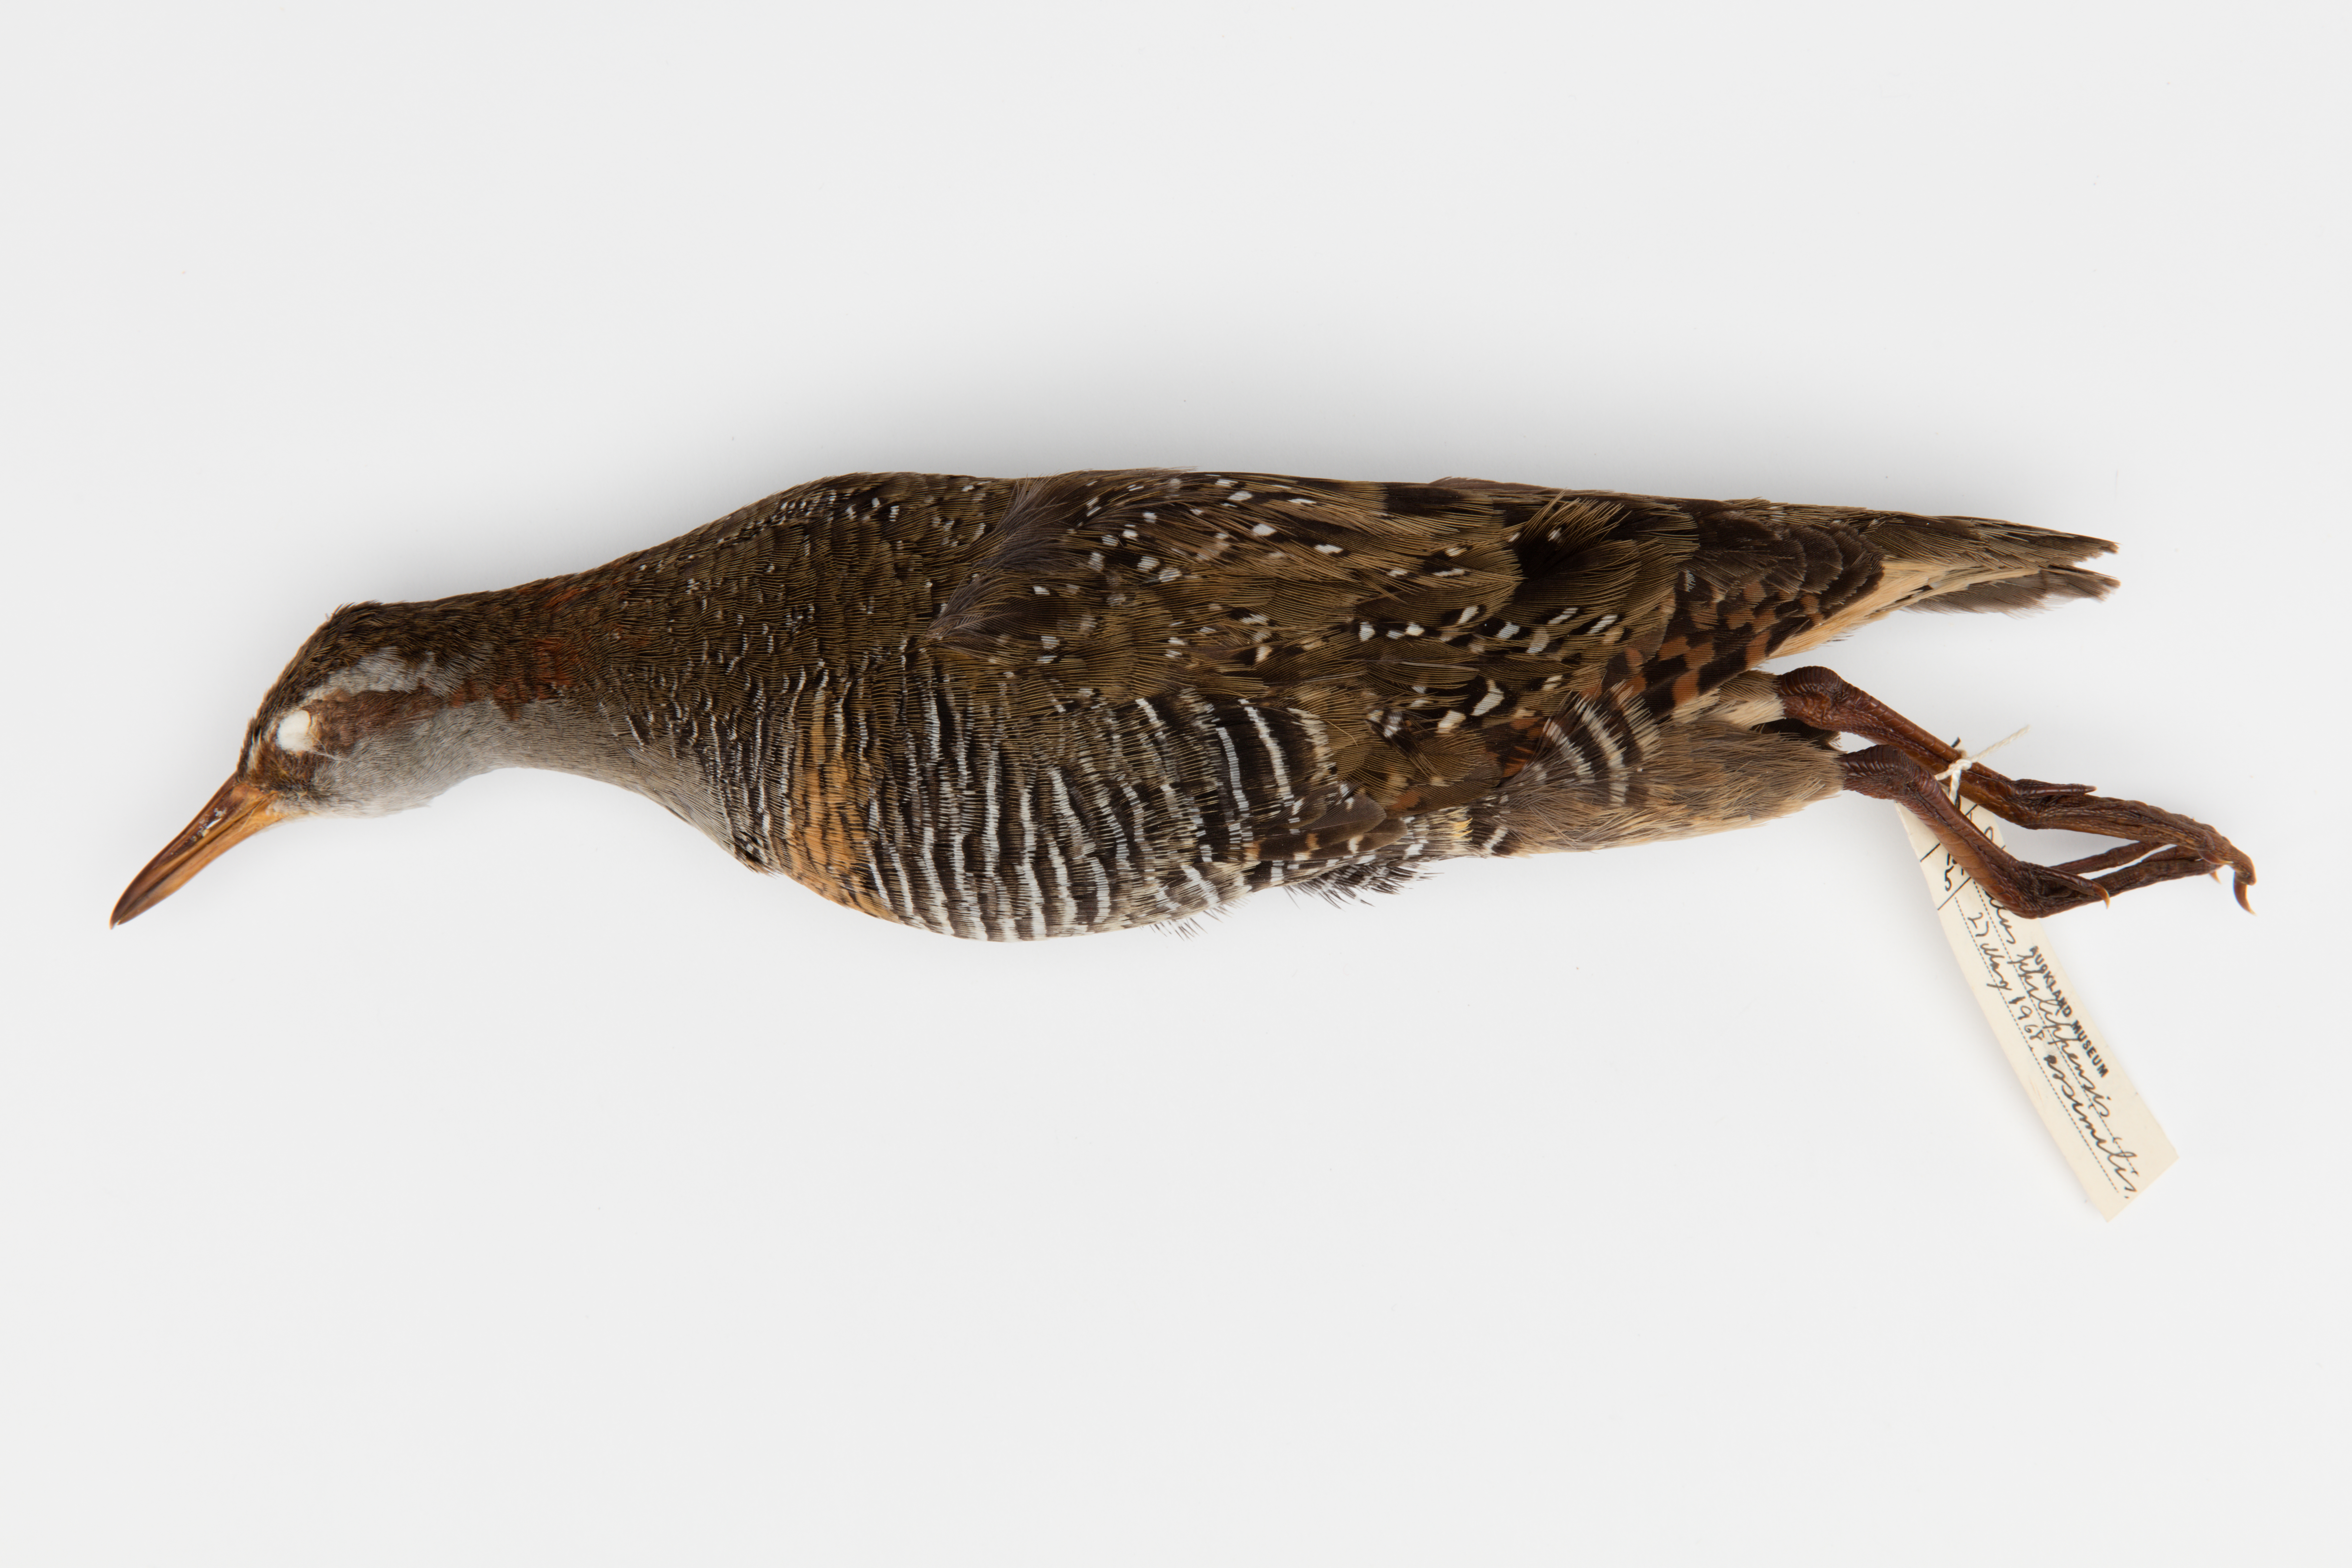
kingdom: Animalia
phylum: Chordata
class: Aves
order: Gruiformes
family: Rallidae
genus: Gallirallus
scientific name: Gallirallus philippensis
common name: Buff-banded rail
